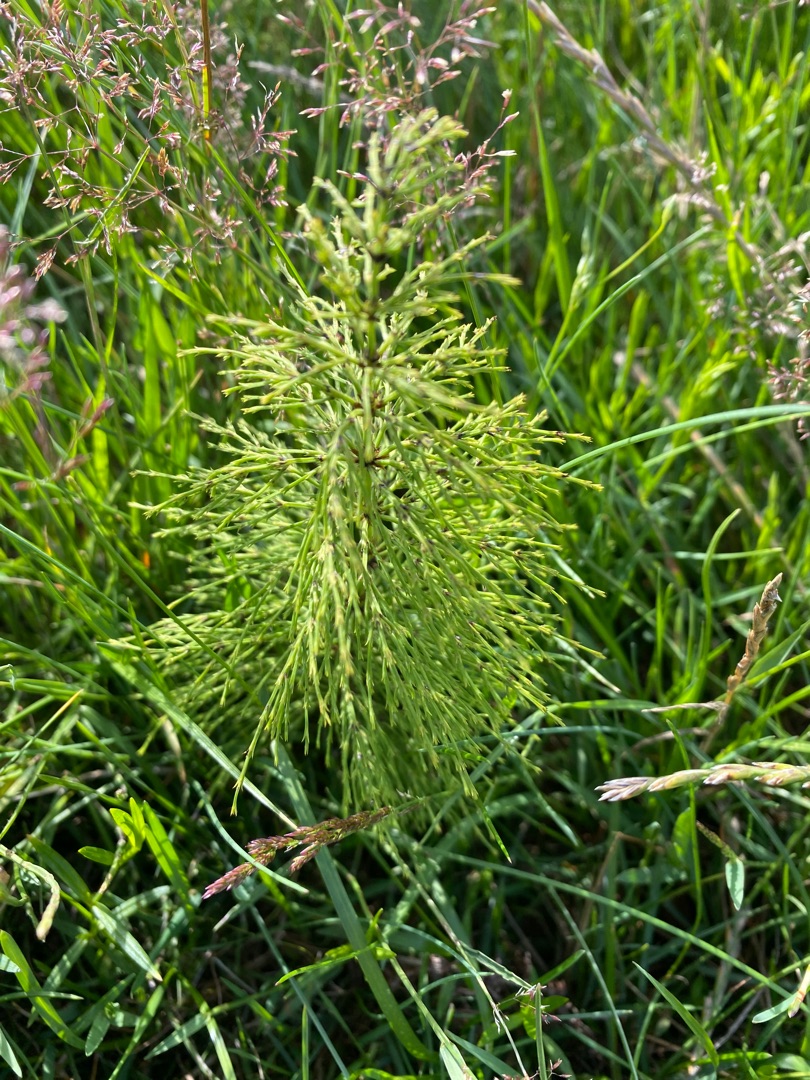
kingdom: Plantae
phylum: Tracheophyta
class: Polypodiopsida
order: Equisetales
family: Equisetaceae
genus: Equisetum
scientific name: Equisetum sylvaticum
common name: Skov-padderok
